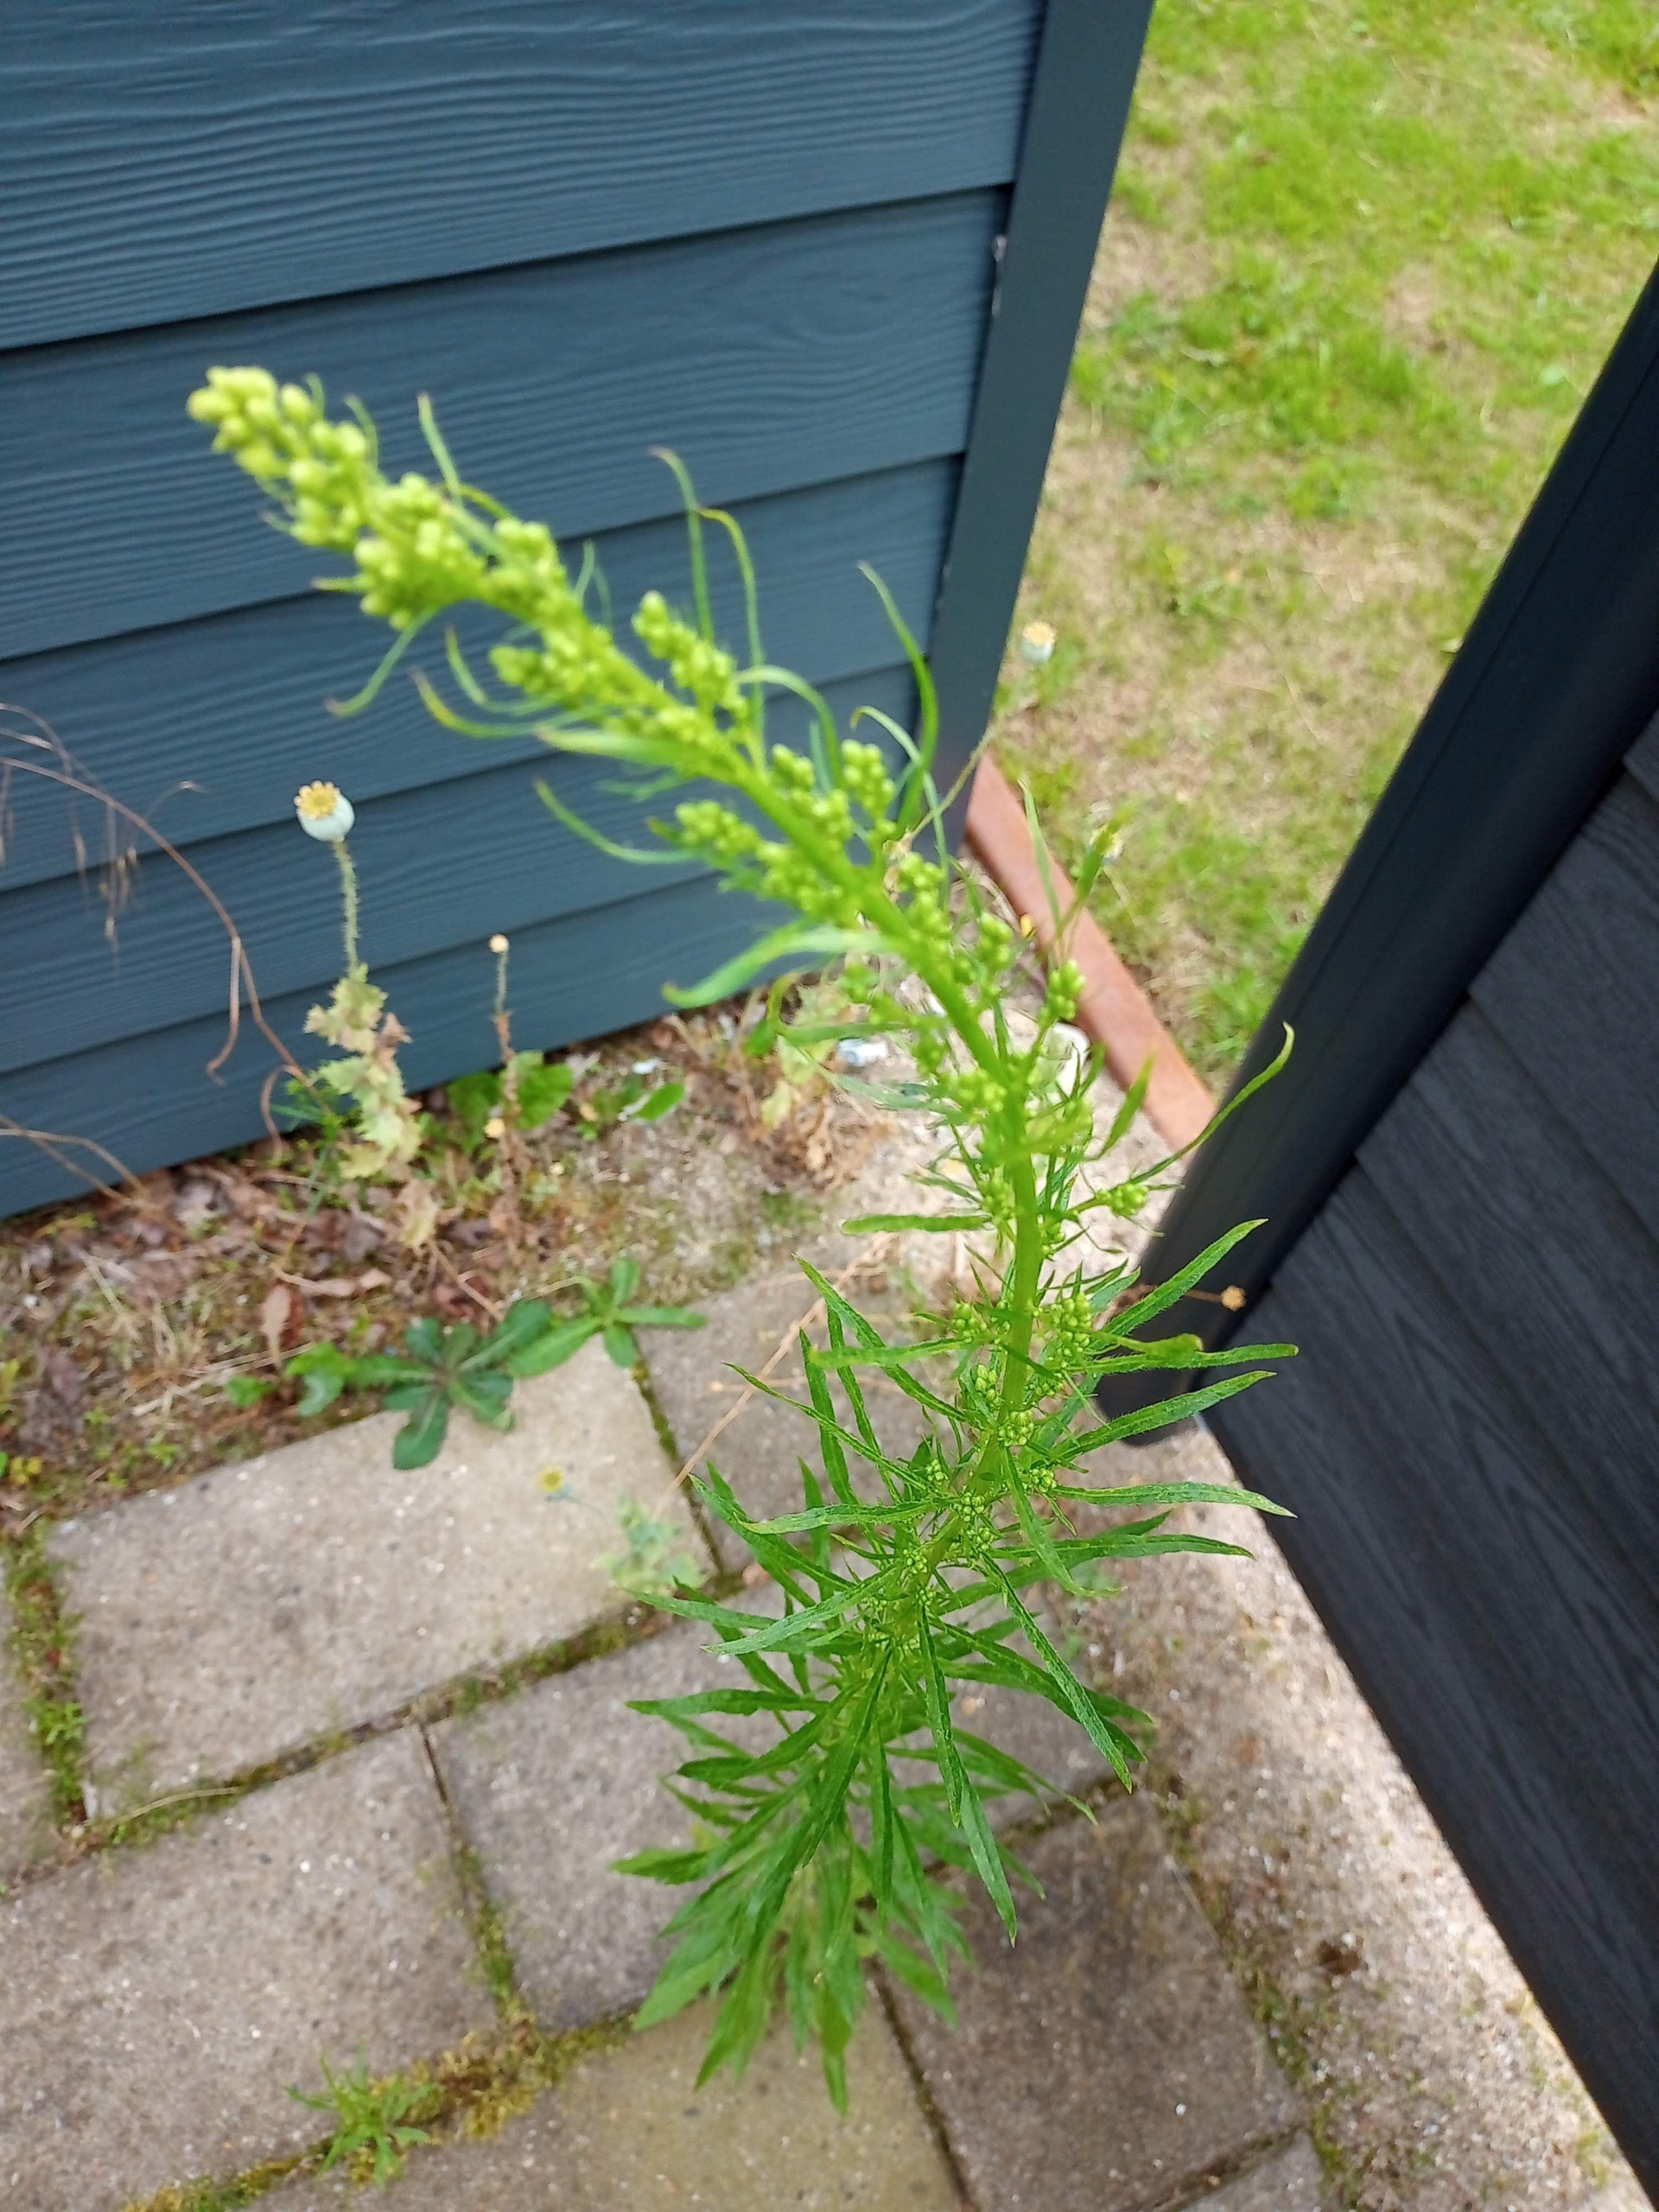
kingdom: Plantae
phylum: Tracheophyta
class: Magnoliopsida
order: Asterales
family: Asteraceae
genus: Erigeron
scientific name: Erigeron canadensis
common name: Kanadisk bakkestjerne
